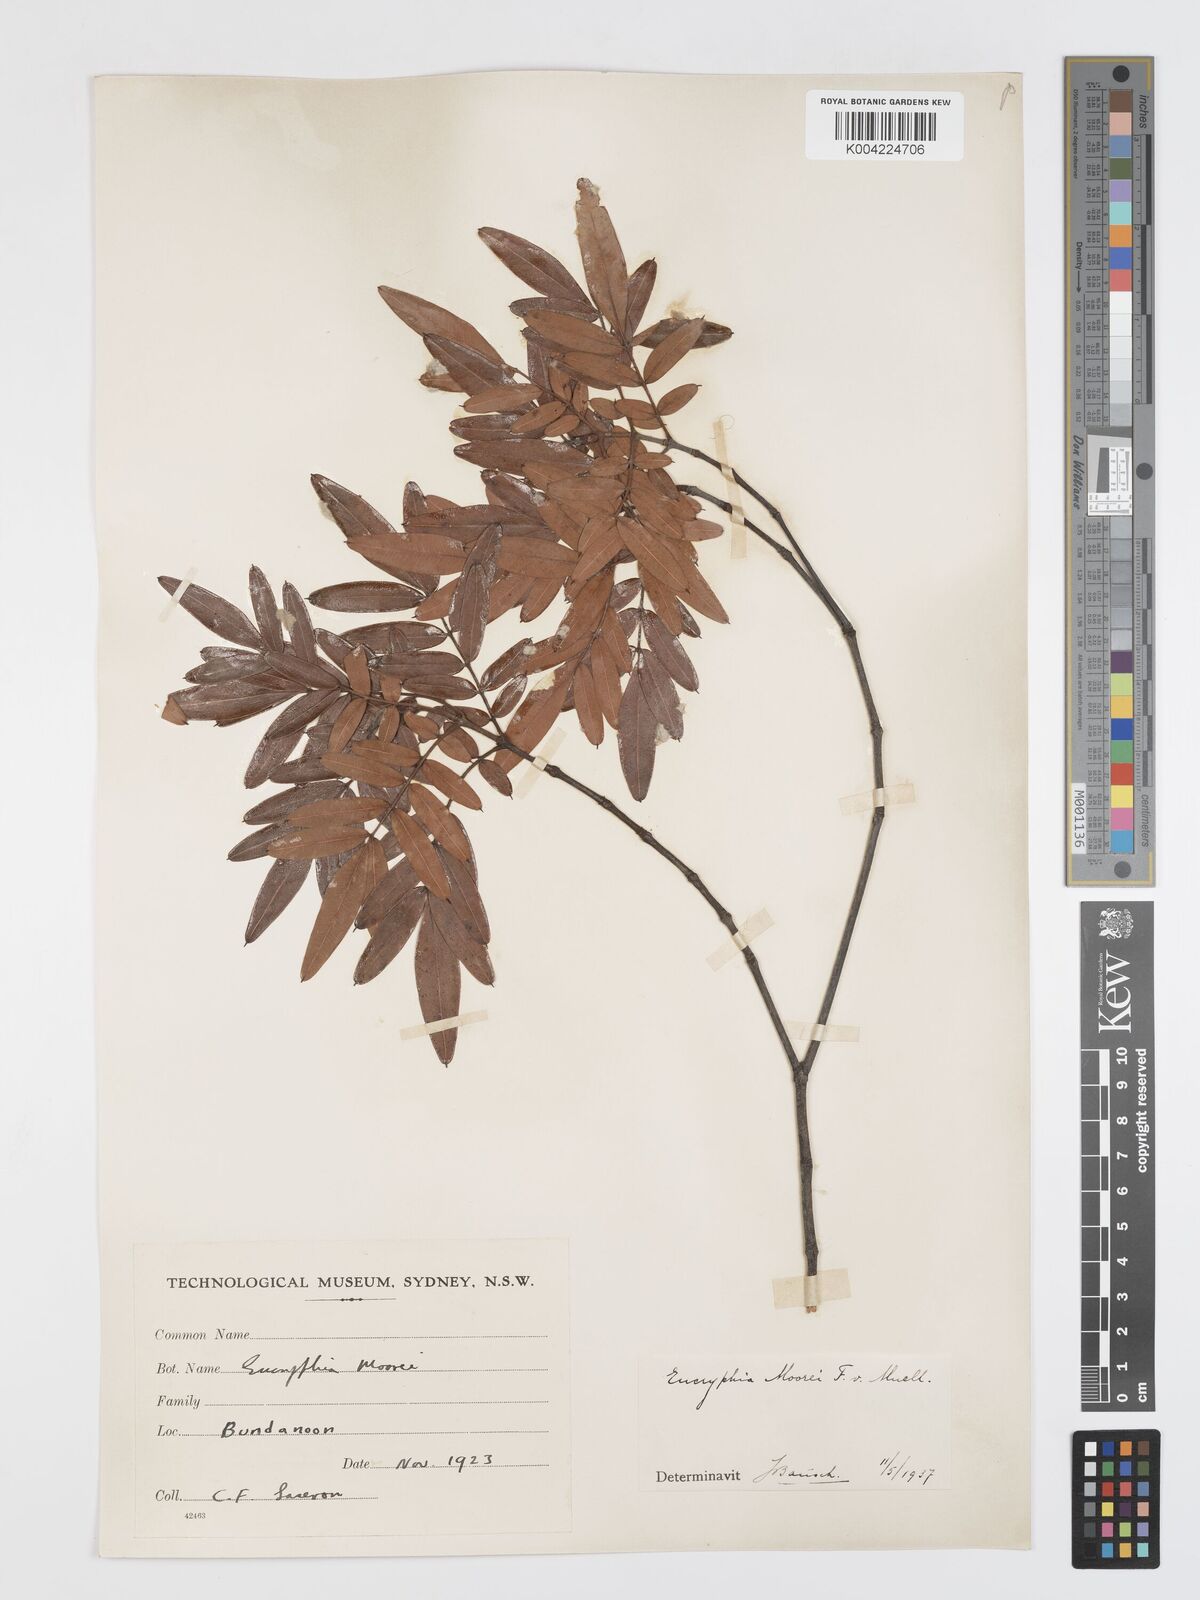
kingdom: Plantae
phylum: Tracheophyta
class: Magnoliopsida
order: Oxalidales
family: Cunoniaceae
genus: Eucryphia
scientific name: Eucryphia moorei
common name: Acacia-plum
